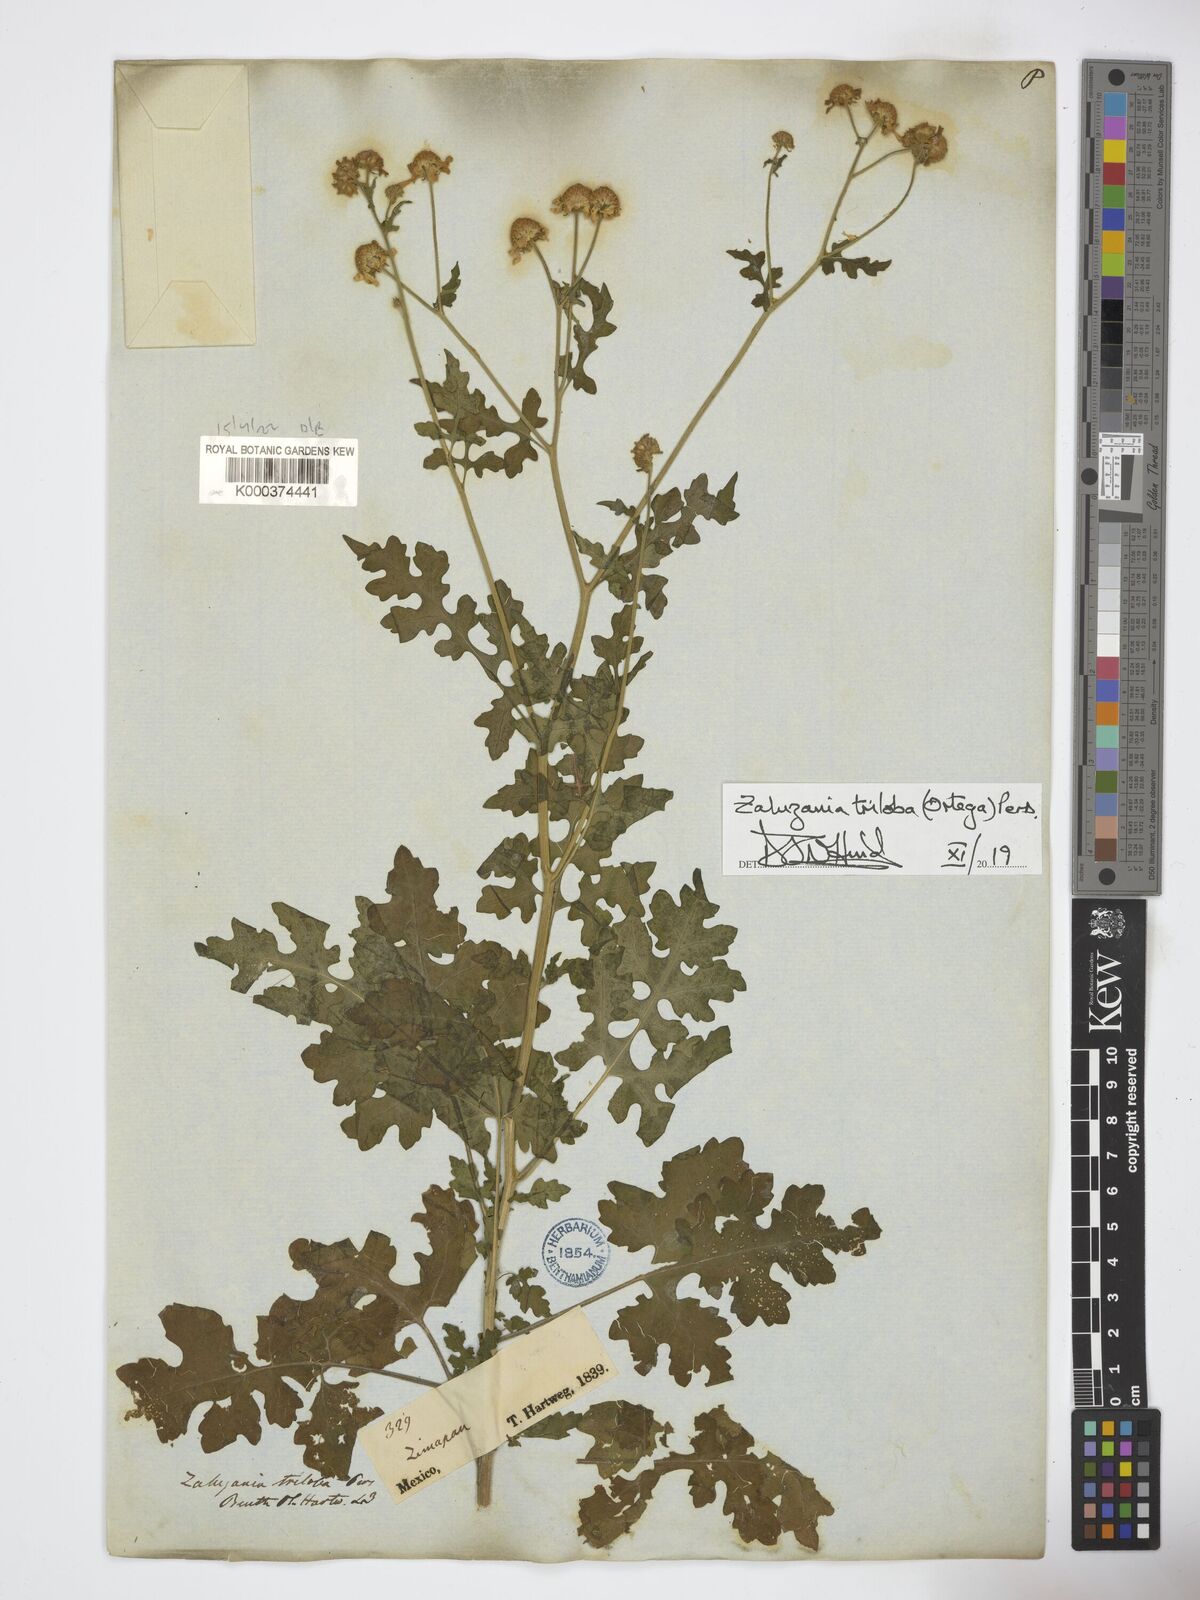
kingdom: Plantae
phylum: Tracheophyta
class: Magnoliopsida
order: Asterales
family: Asteraceae
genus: Zaluzania
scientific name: Zaluzania triloba
